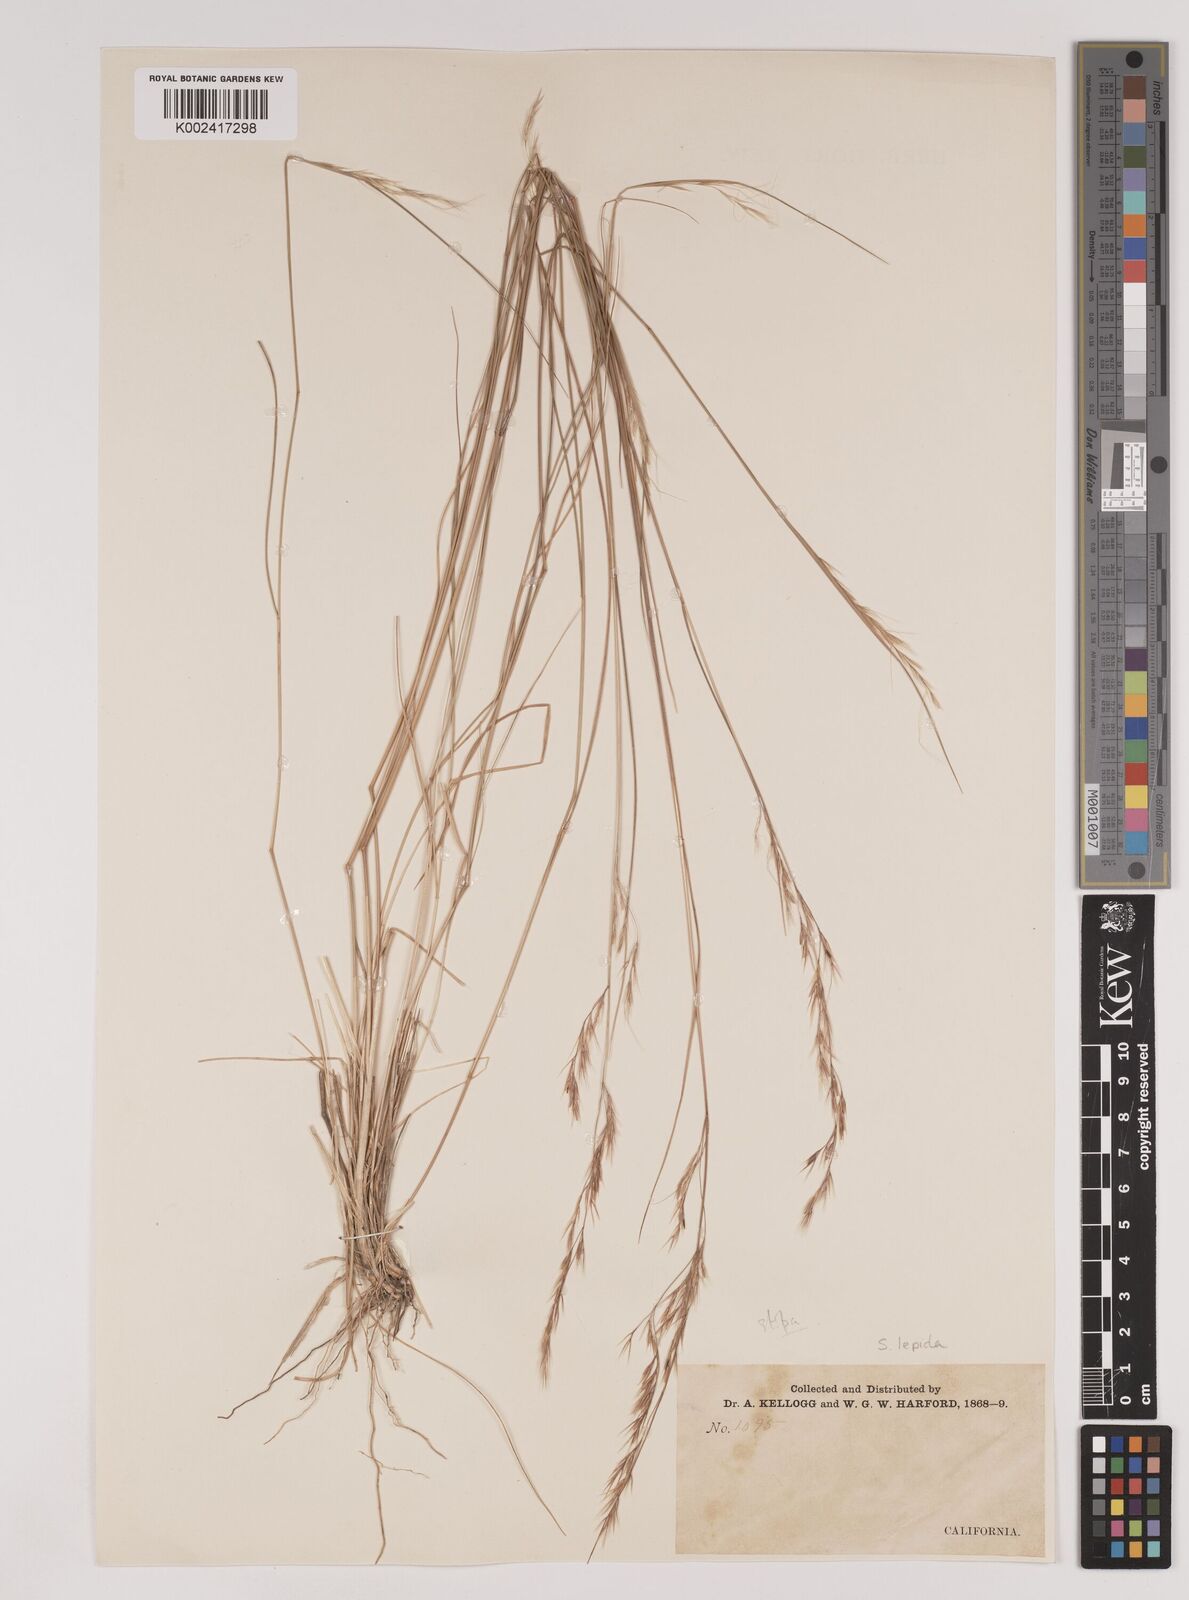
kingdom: Plantae
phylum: Tracheophyta
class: Liliopsida
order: Poales
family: Poaceae
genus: Nassella
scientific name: Nassella lepida
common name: Foothill needlegrass
